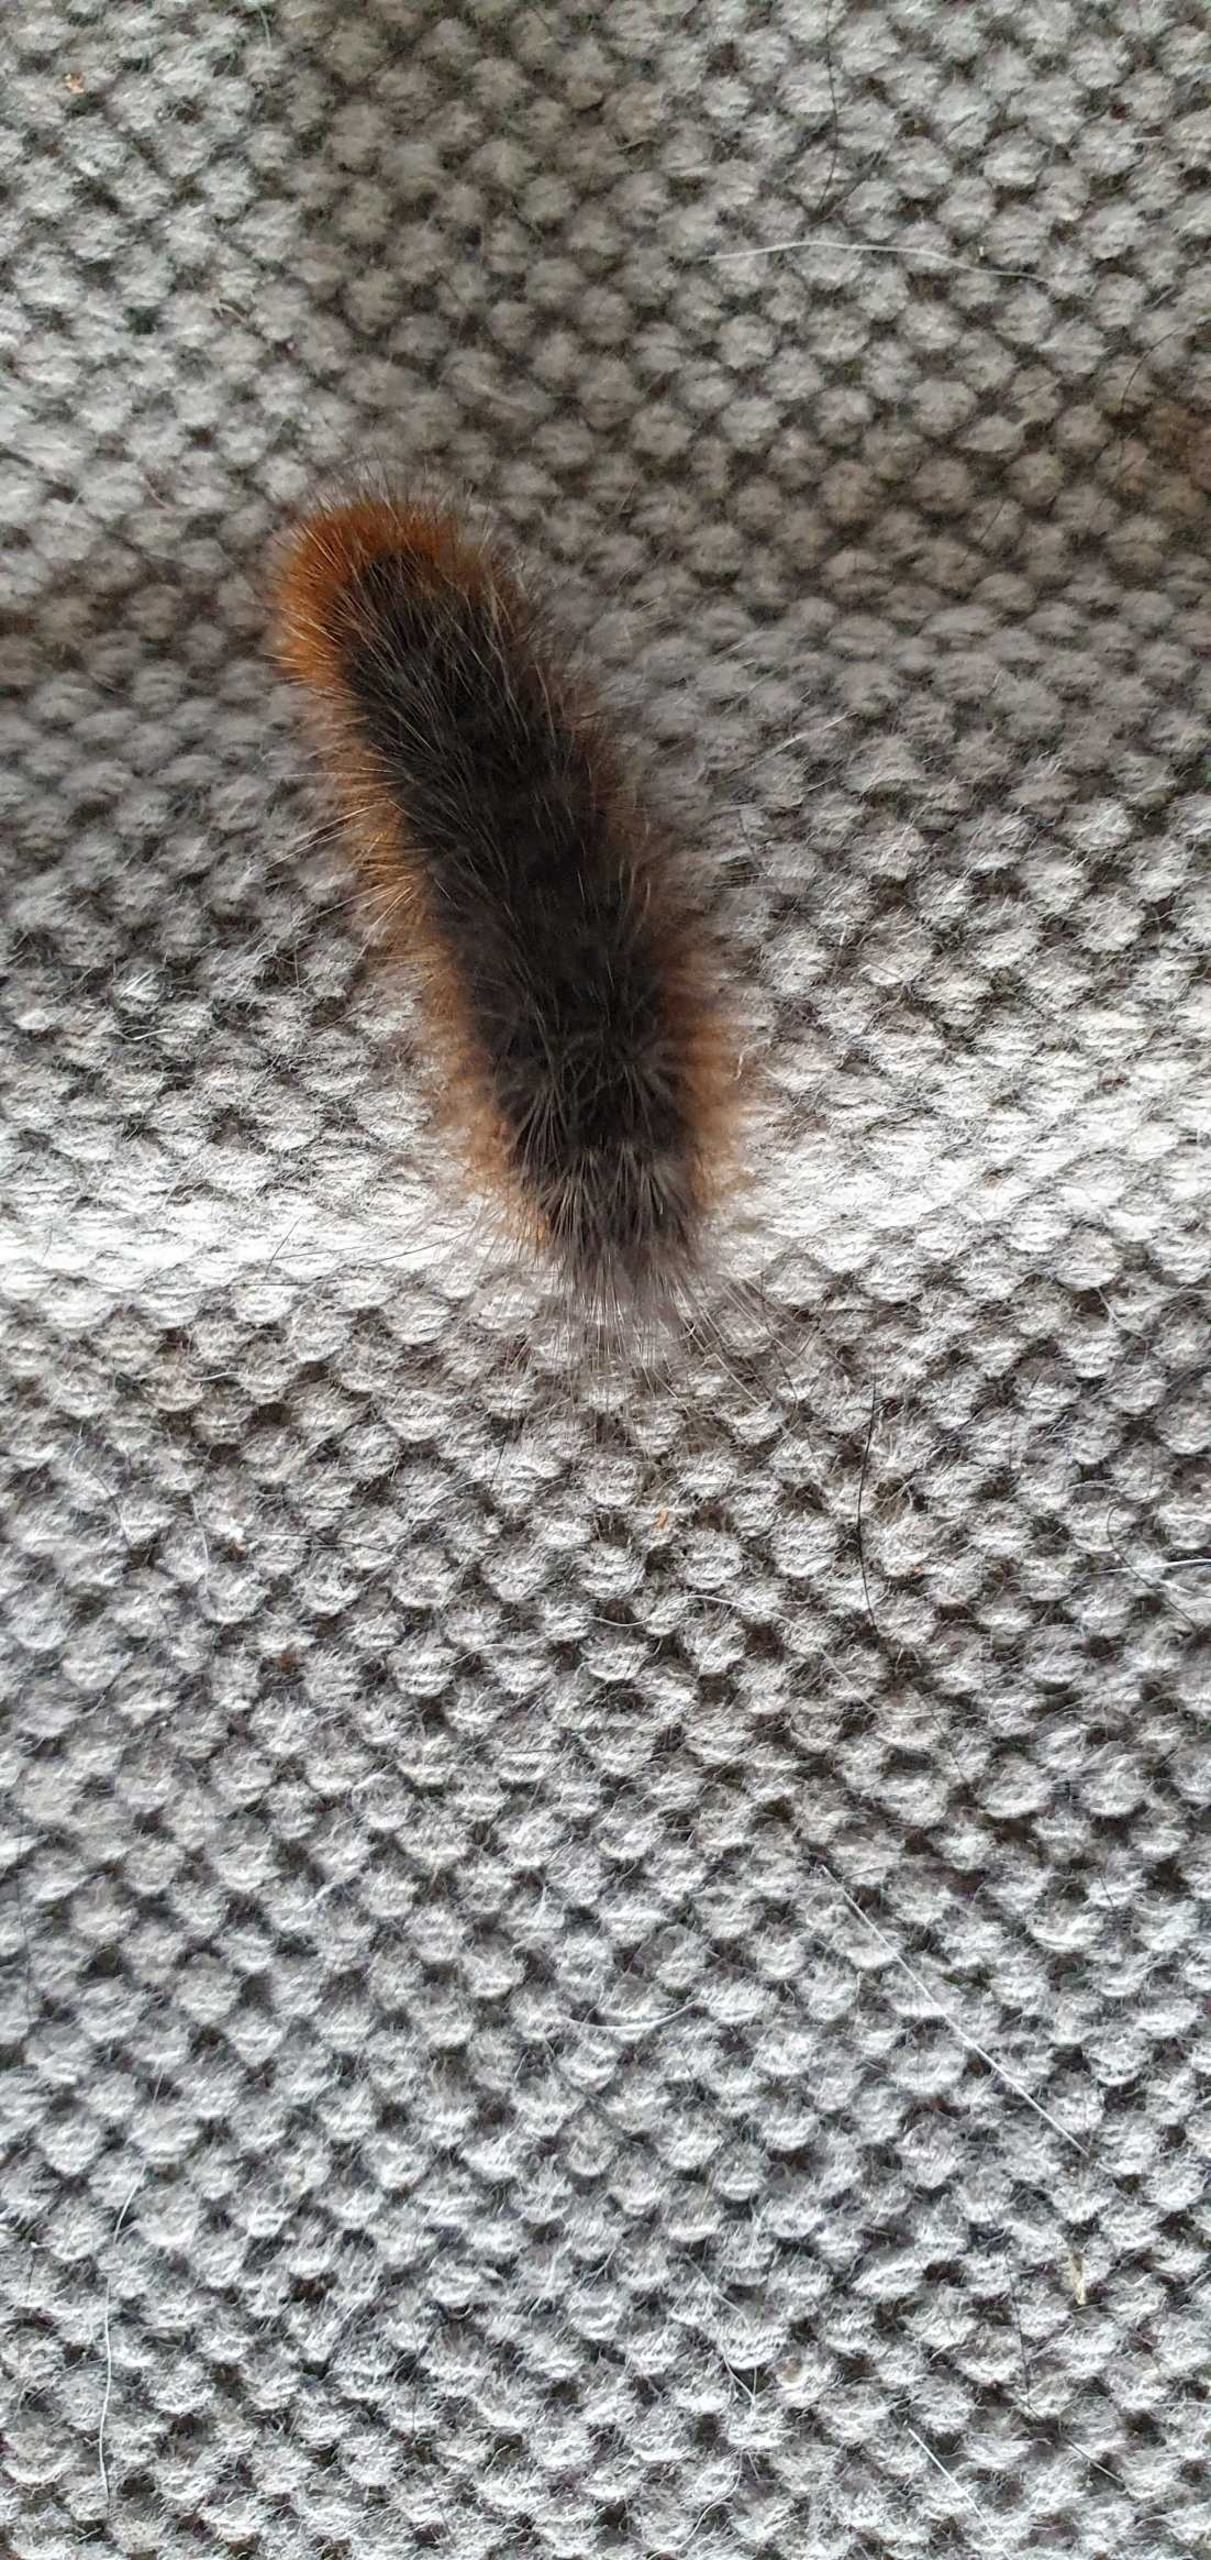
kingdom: Animalia
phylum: Arthropoda
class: Insecta
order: Lepidoptera
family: Erebidae
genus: Arctia
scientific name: Arctia caja
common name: Brun bjørn
